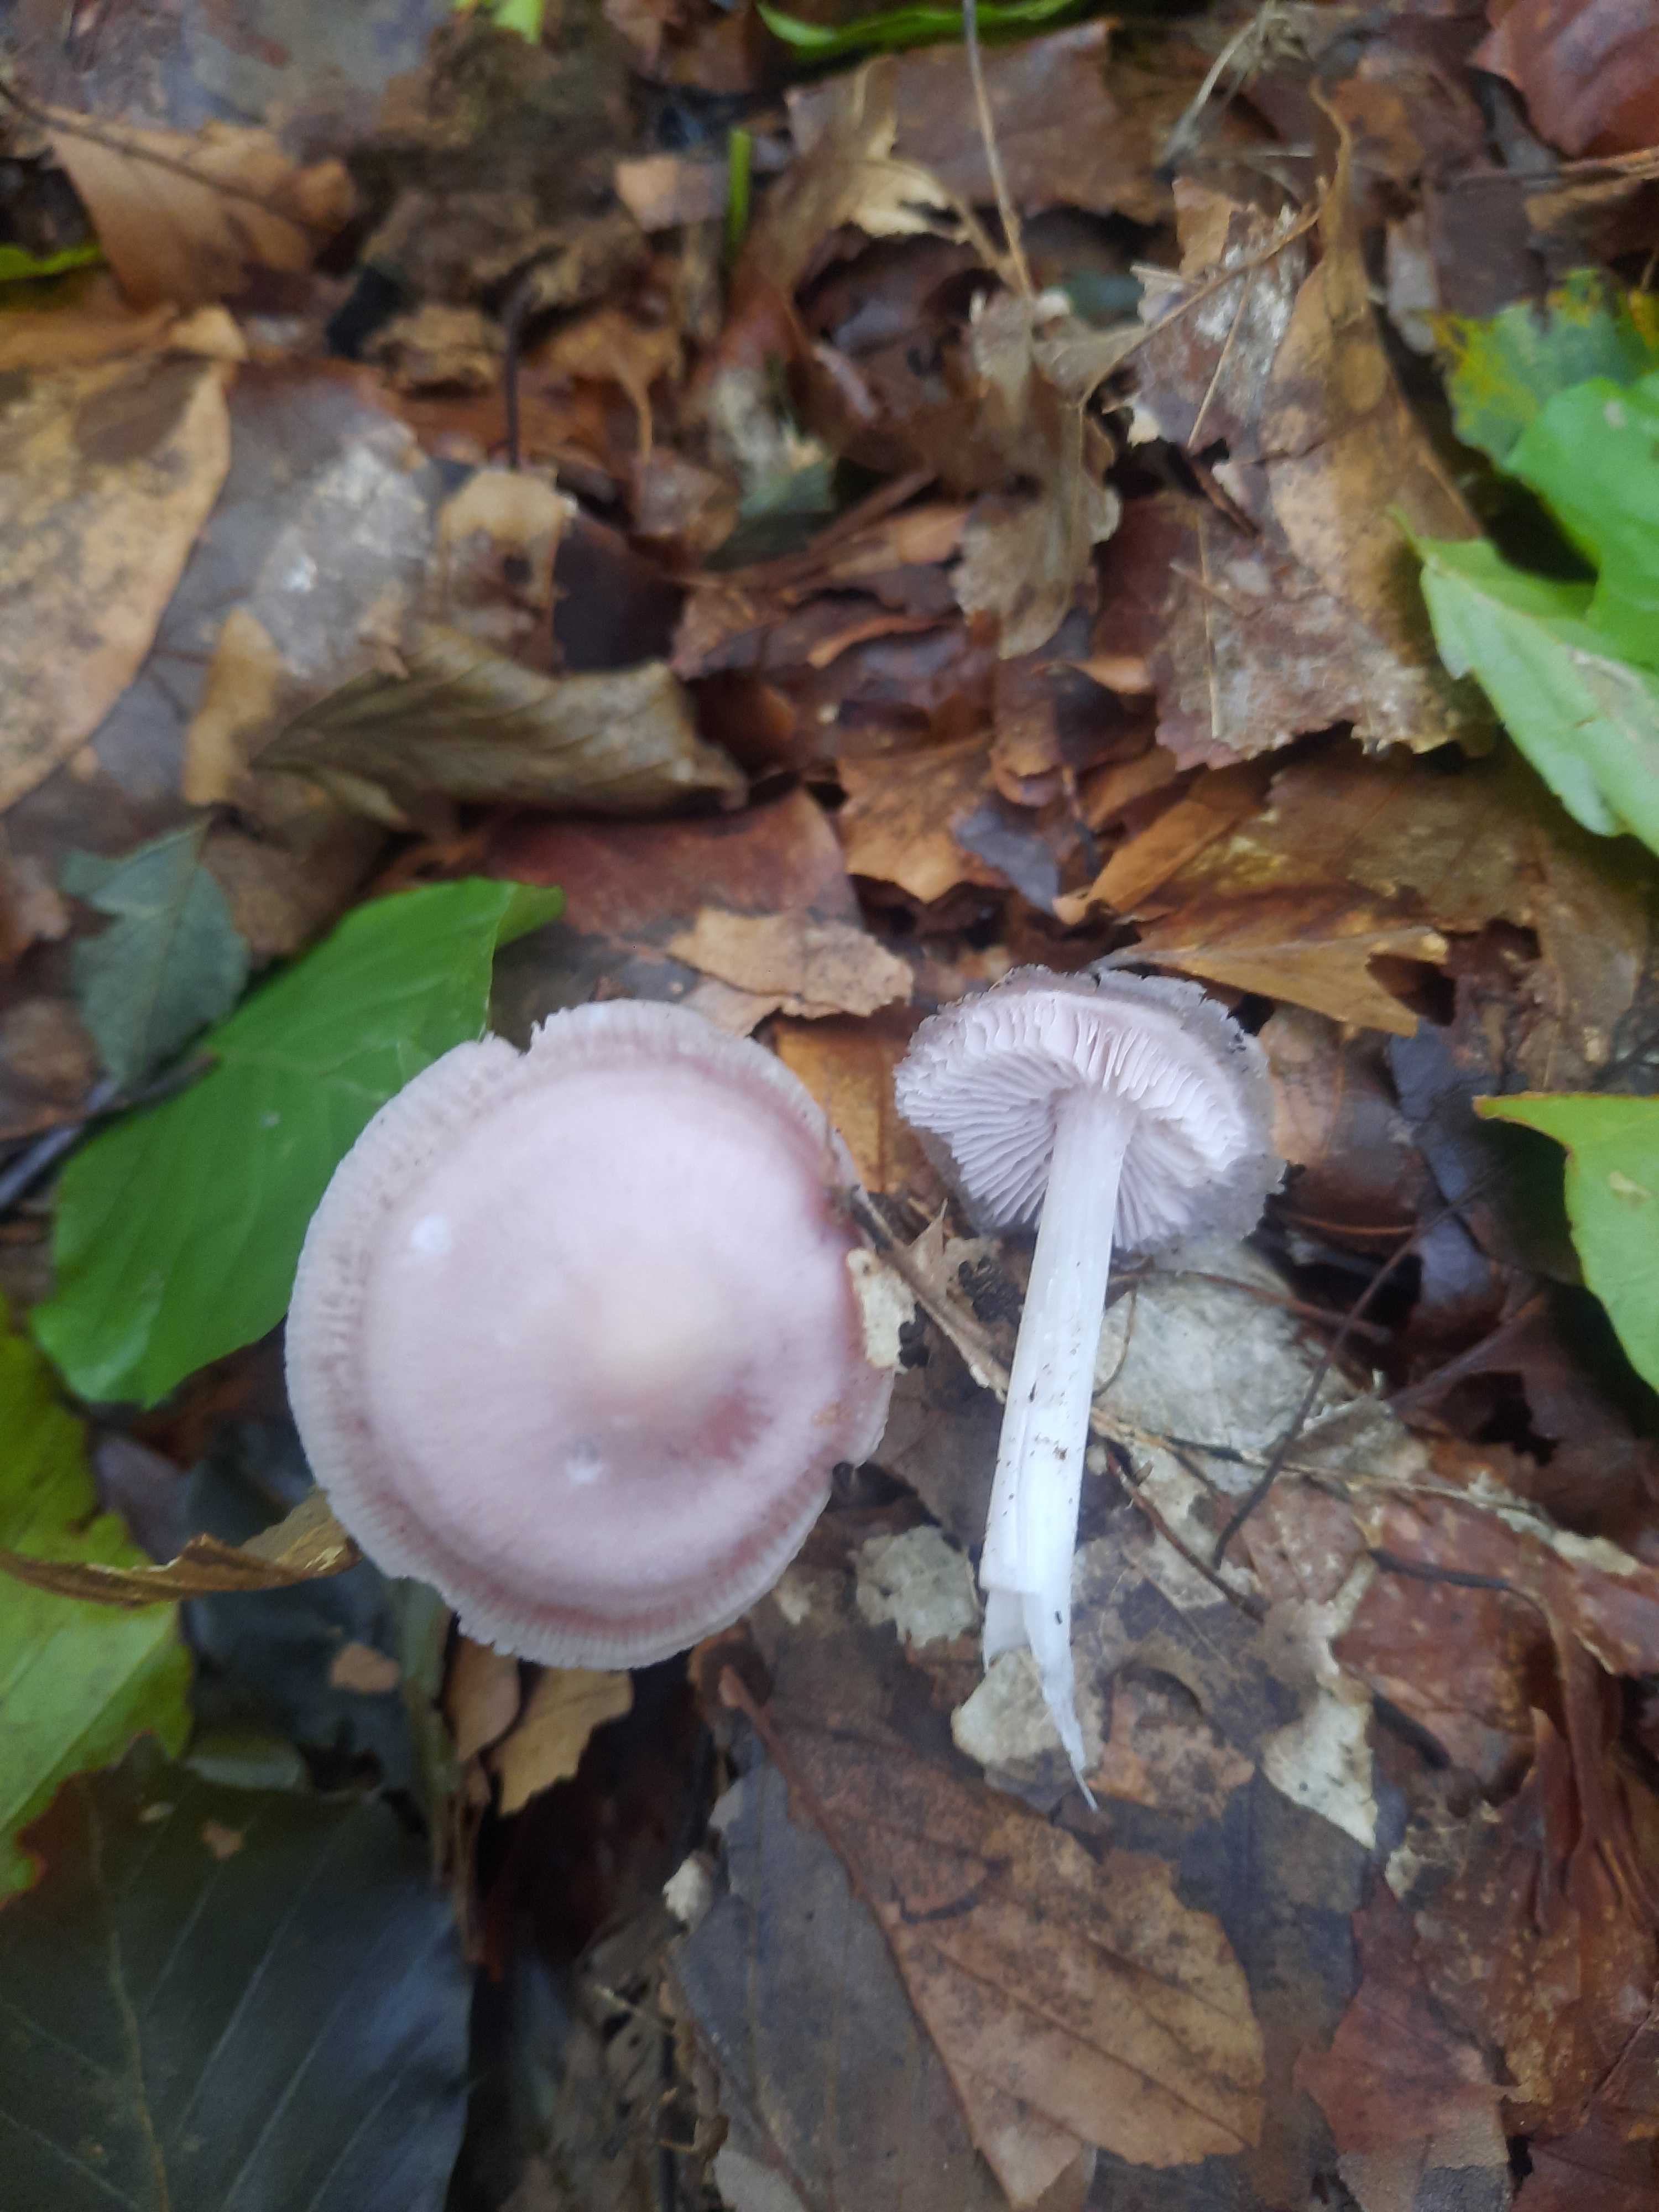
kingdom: Fungi
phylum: Basidiomycota
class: Agaricomycetes
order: Agaricales
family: Mycenaceae
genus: Mycena
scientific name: Mycena rosea
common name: rosa huesvamp
